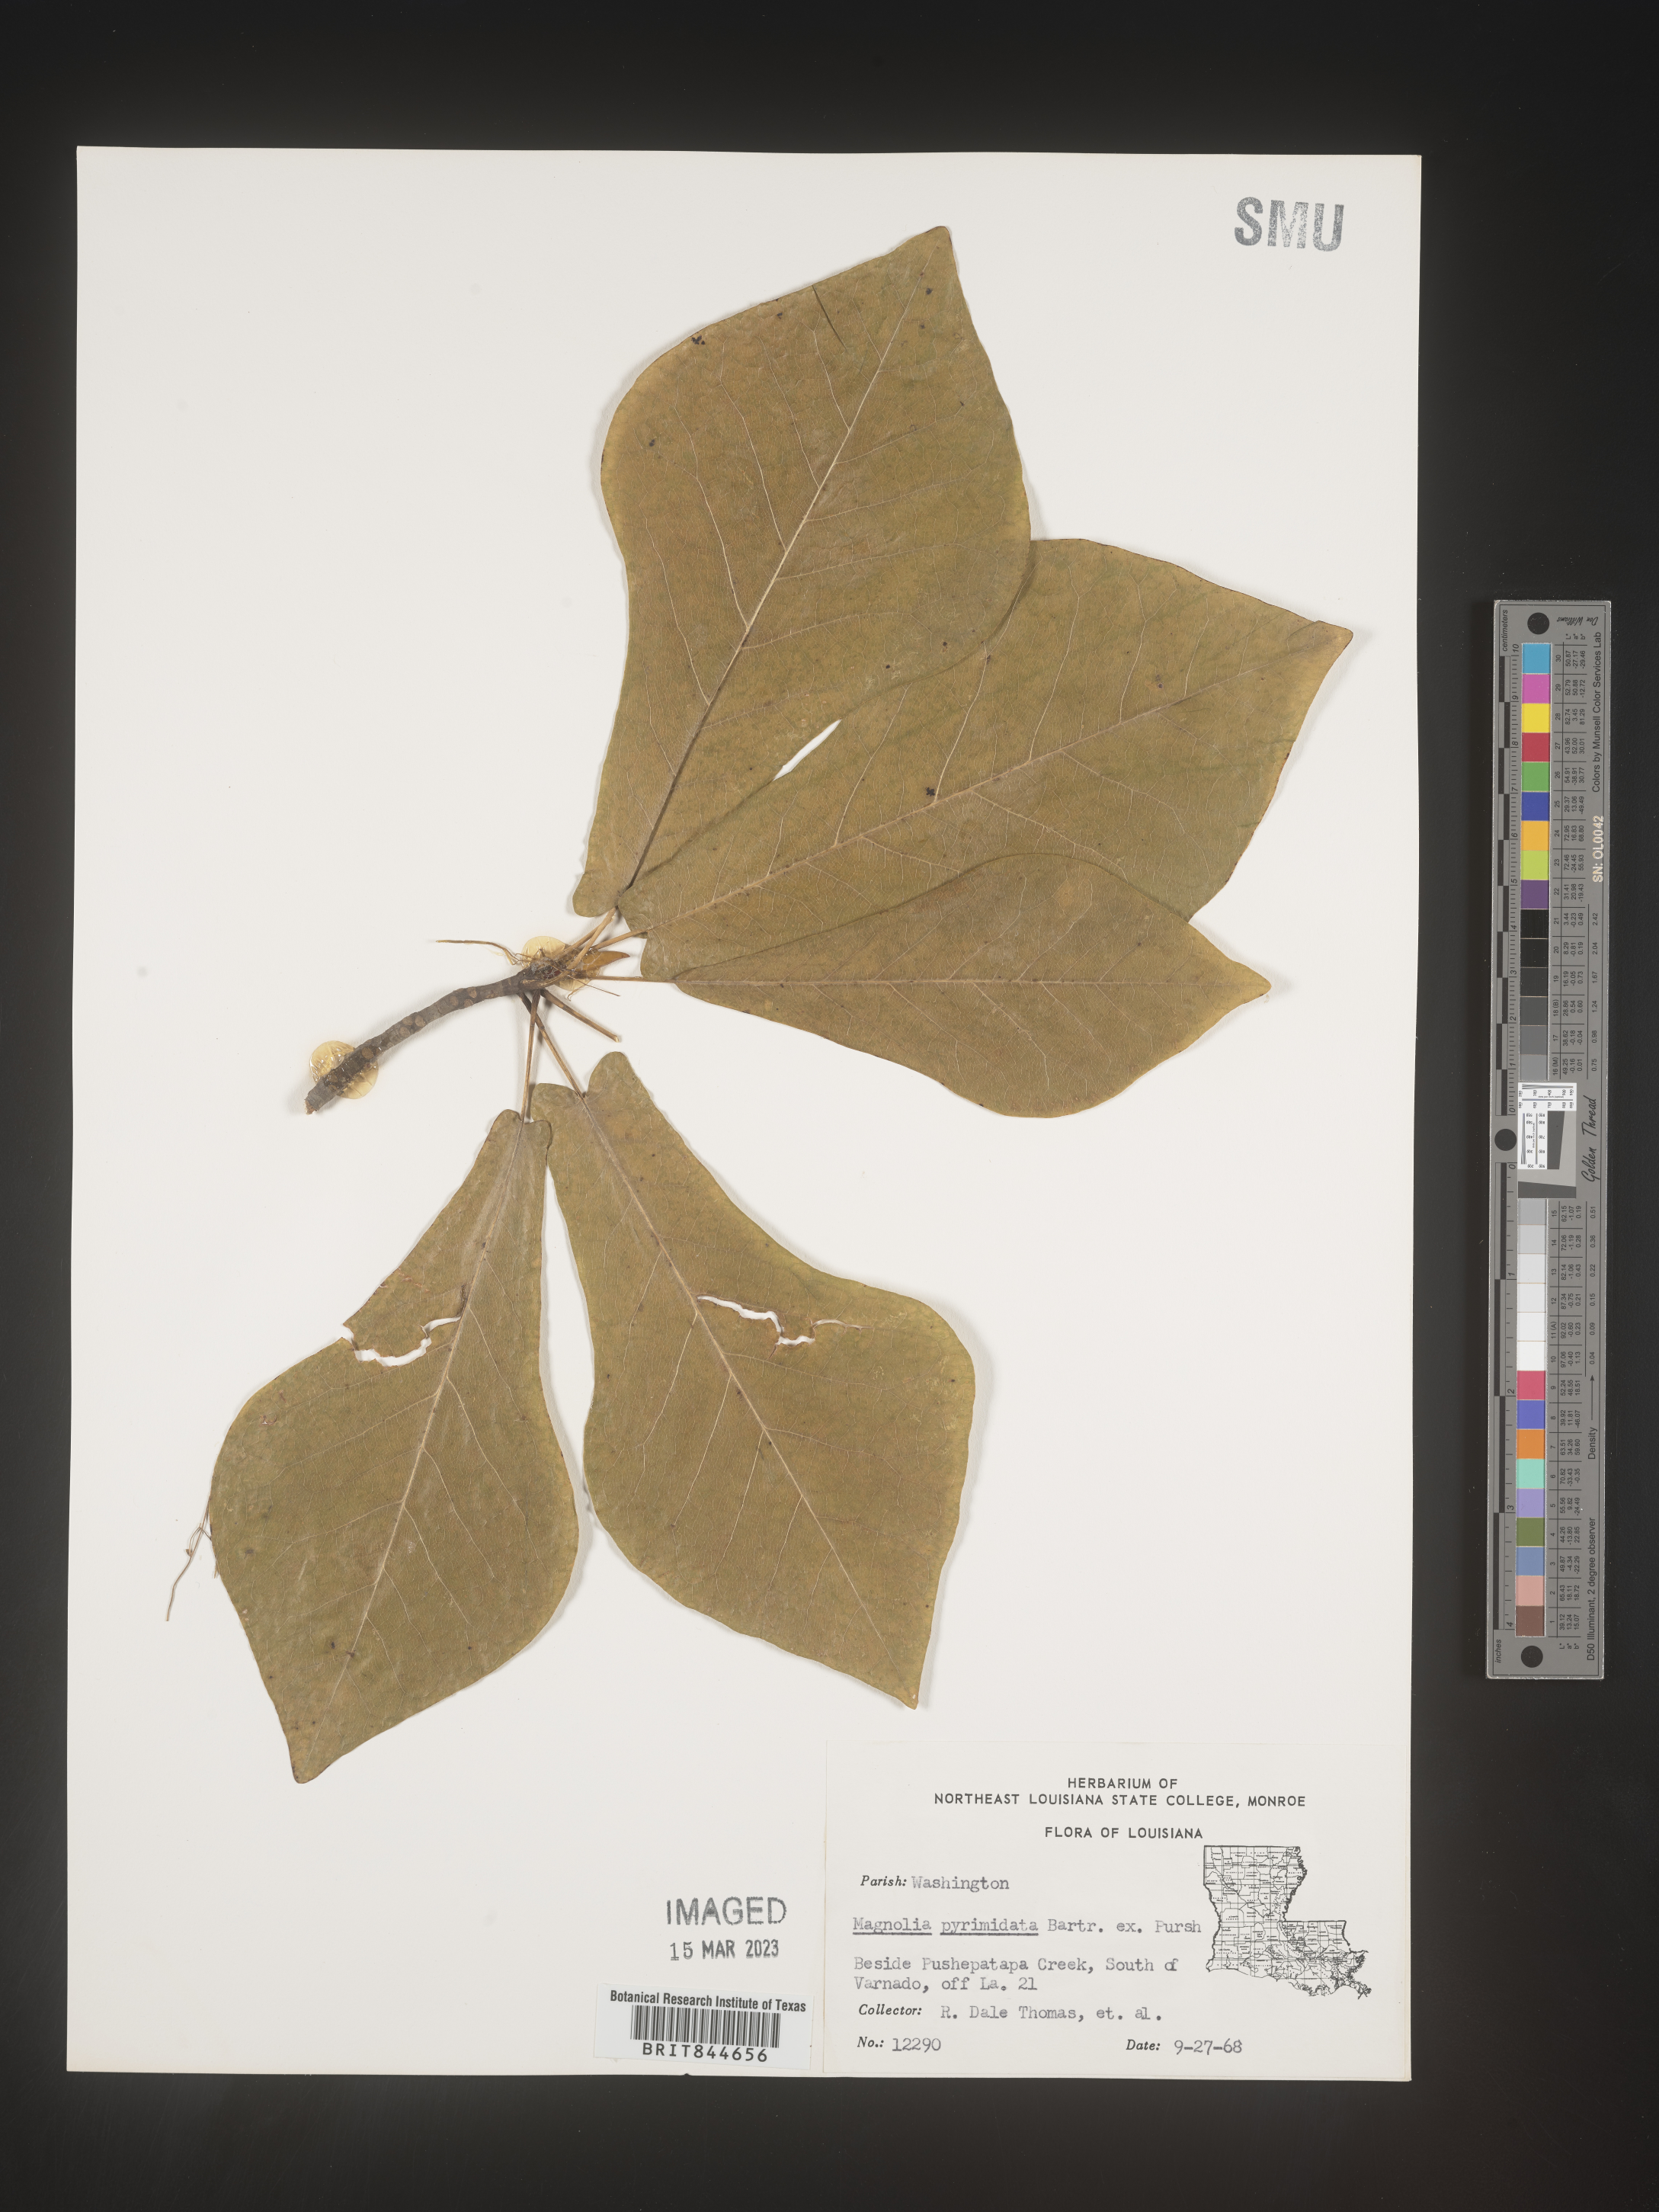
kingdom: Plantae
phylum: Tracheophyta
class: Magnoliopsida
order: Magnoliales
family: Magnoliaceae
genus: Magnolia
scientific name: Magnolia fraseri
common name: Fraser's magnolia
